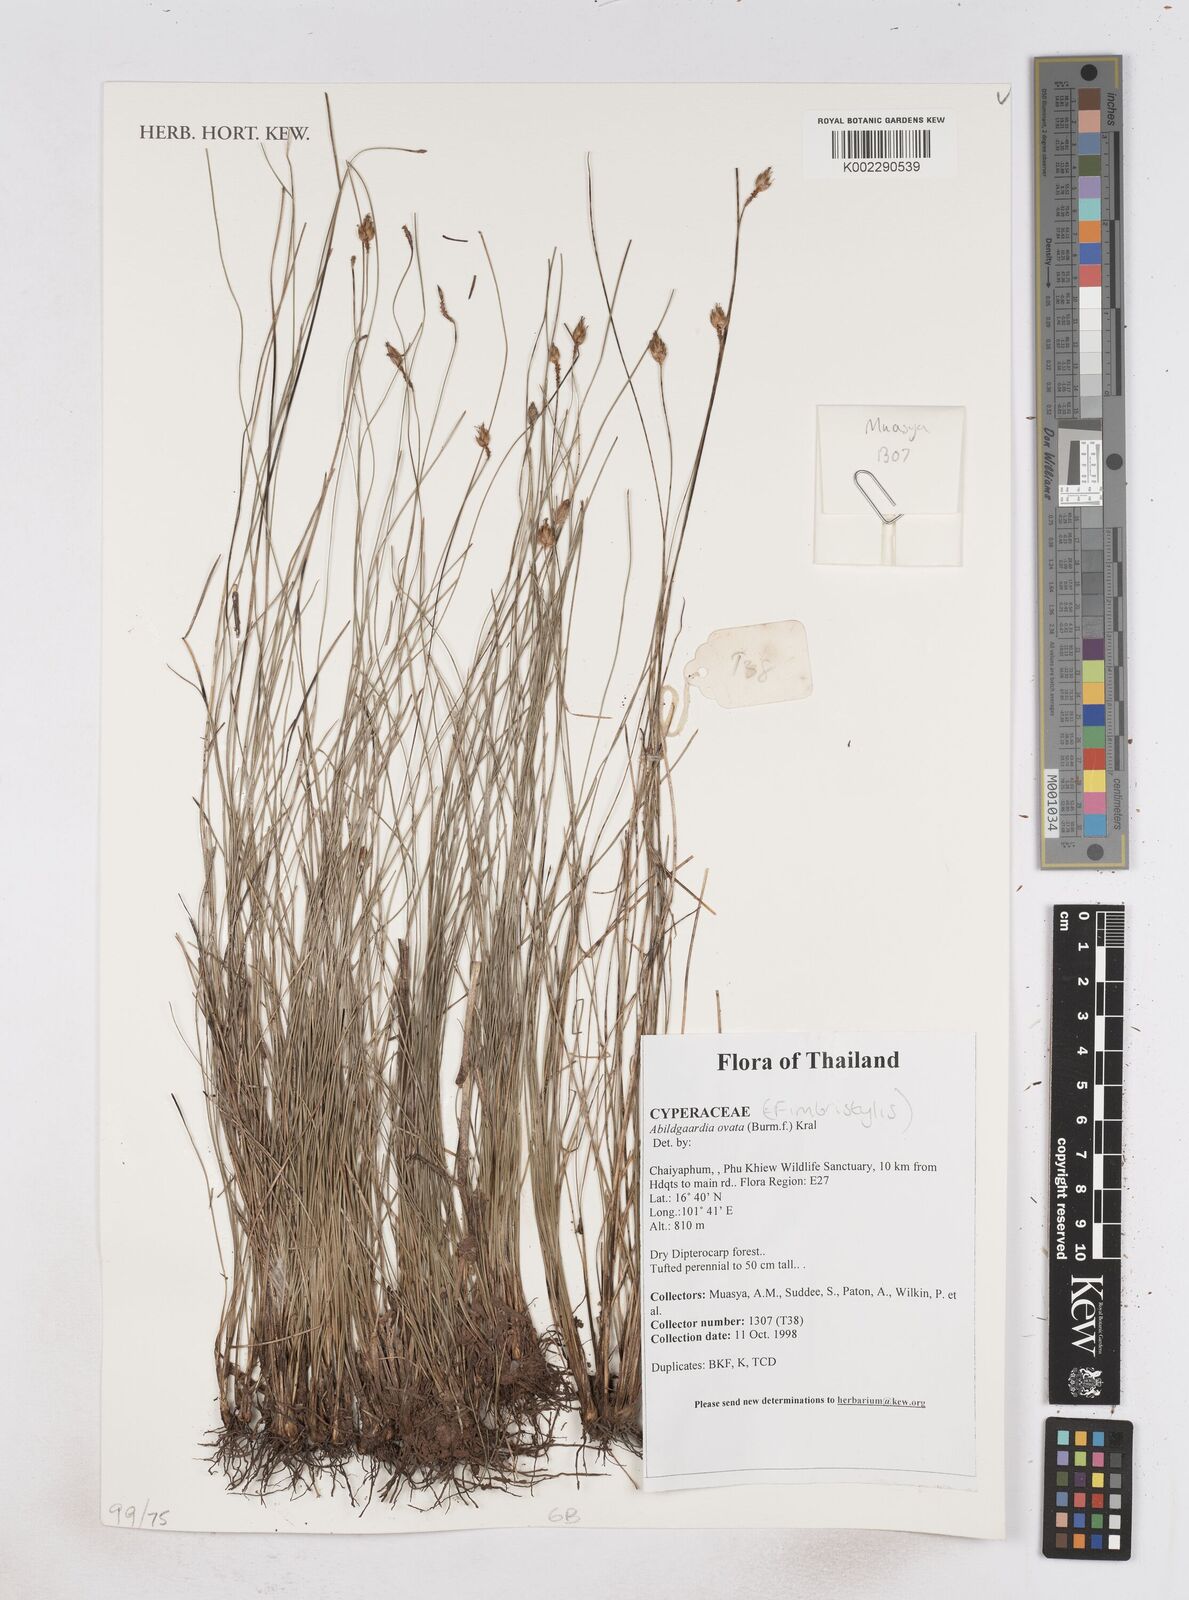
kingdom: Plantae
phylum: Tracheophyta
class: Liliopsida
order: Poales
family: Cyperaceae
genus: Abildgaardia
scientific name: Abildgaardia ovata
